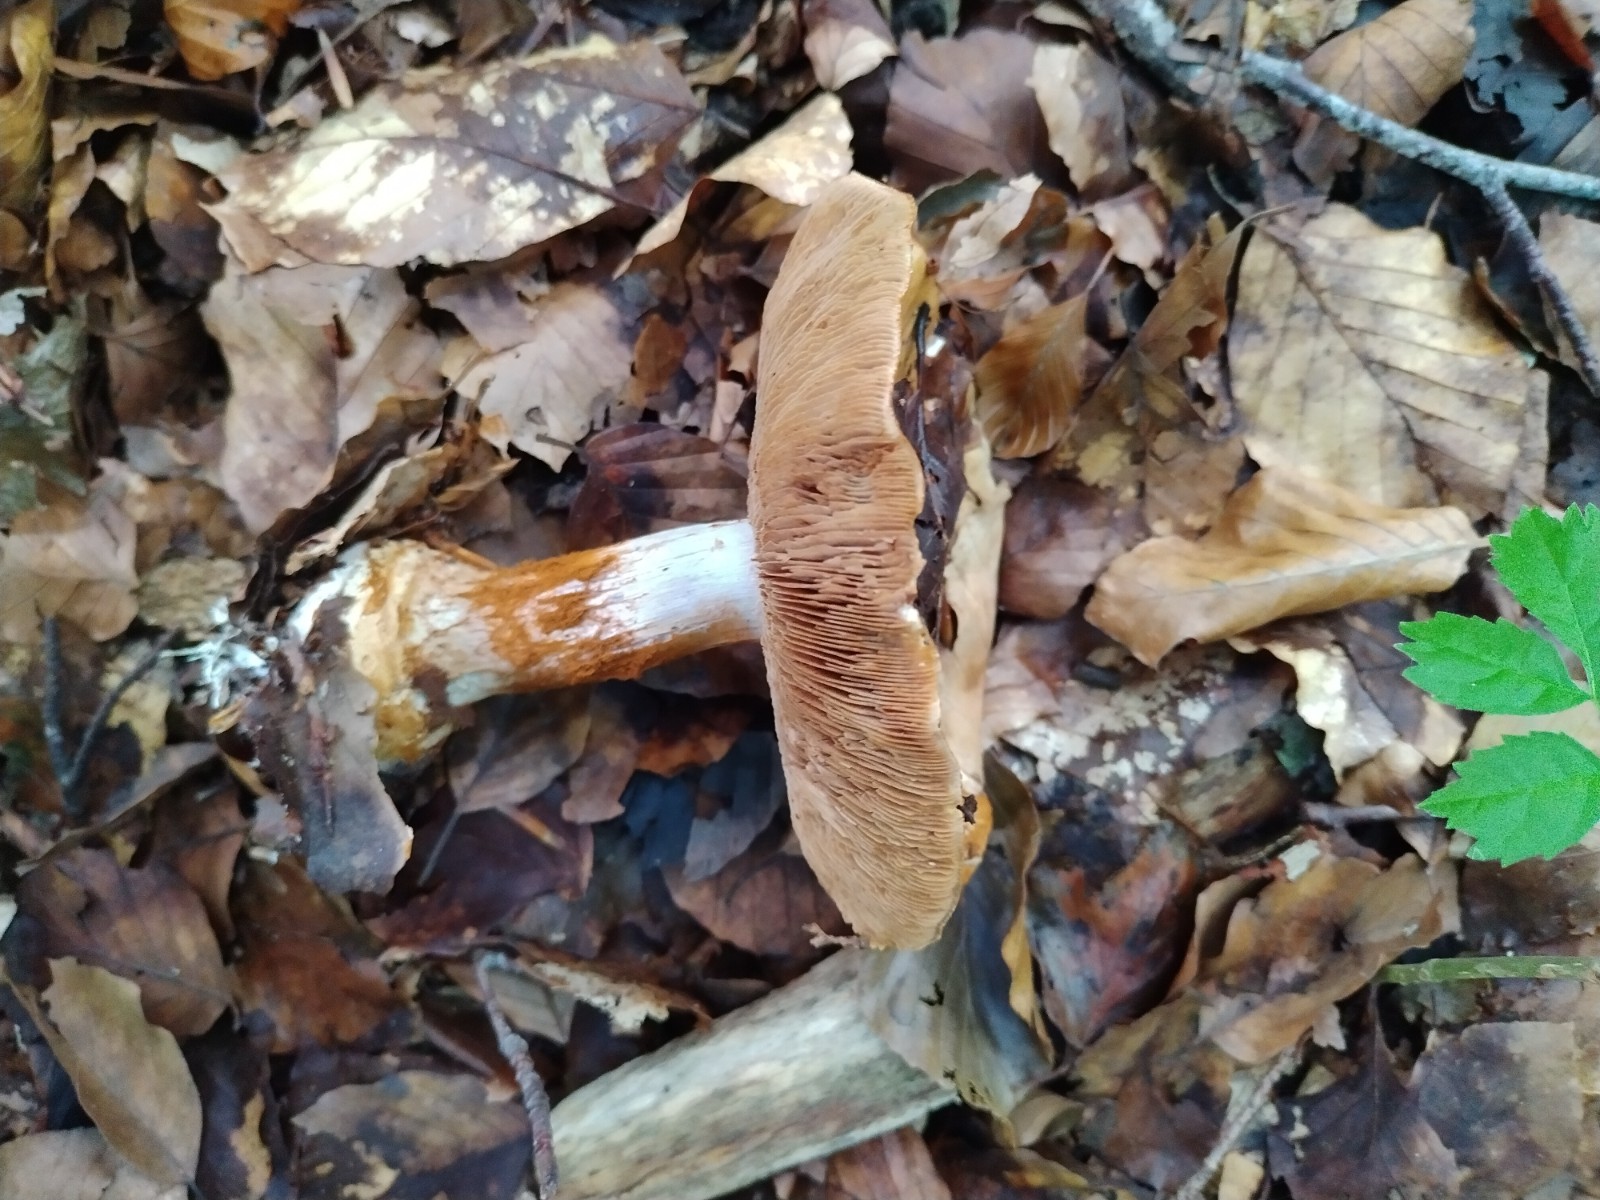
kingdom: Fungi
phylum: Basidiomycota
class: Agaricomycetes
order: Agaricales
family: Cortinariaceae
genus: Cortinarius
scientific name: Cortinarius anserinus
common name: bøge-slørhat
